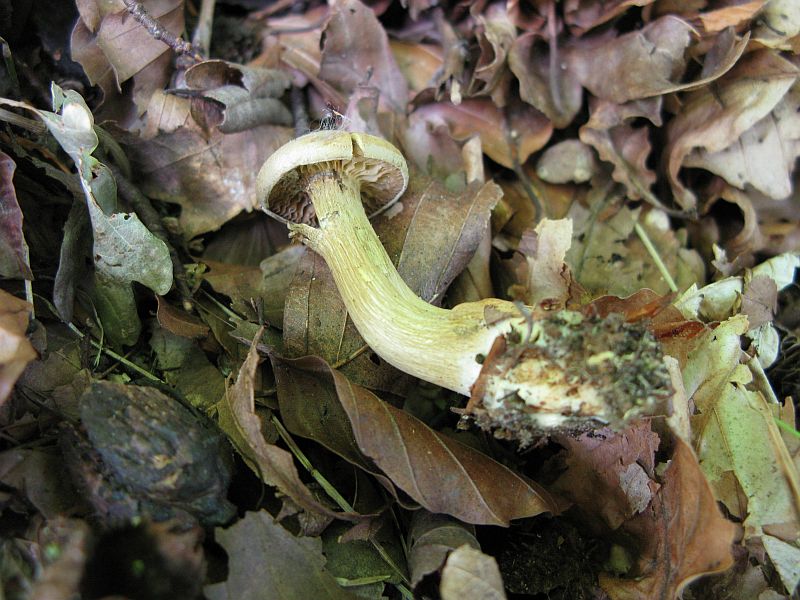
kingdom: Fungi
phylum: Basidiomycota
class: Agaricomycetes
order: Agaricales
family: Tricholomataceae
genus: Tricholoma
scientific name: Tricholoma sulphureum
